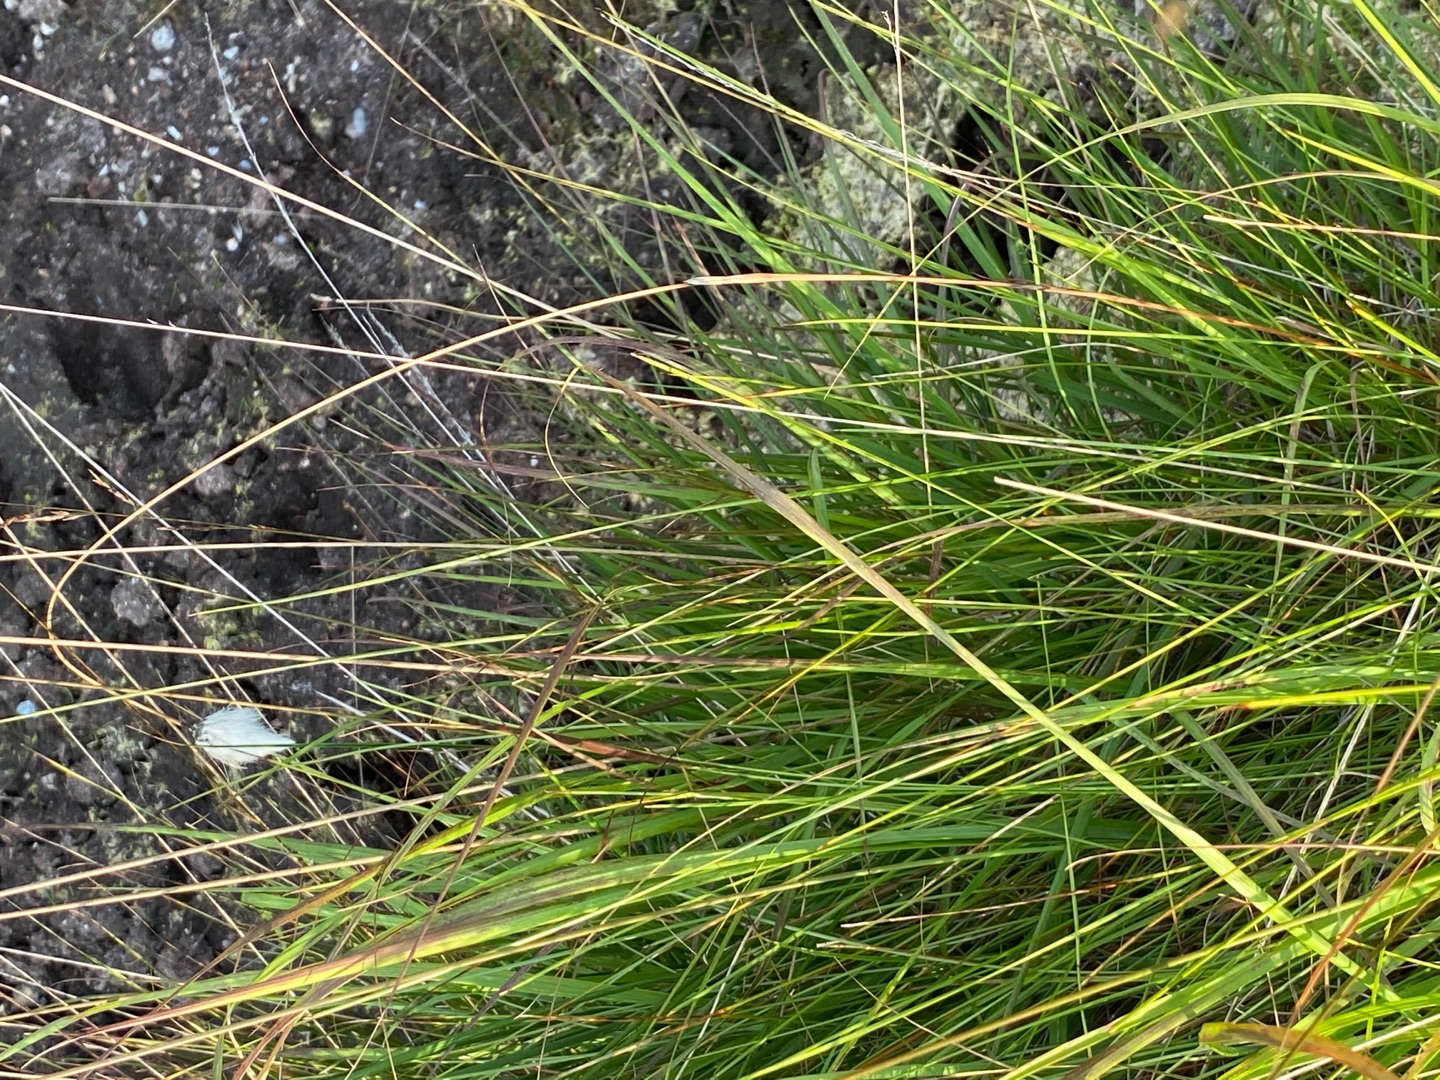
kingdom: Plantae
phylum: Tracheophyta
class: Liliopsida
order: Poales
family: Cyperaceae
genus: Eriophorum
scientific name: Eriophorum vaginatum
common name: Tue-kæruld
